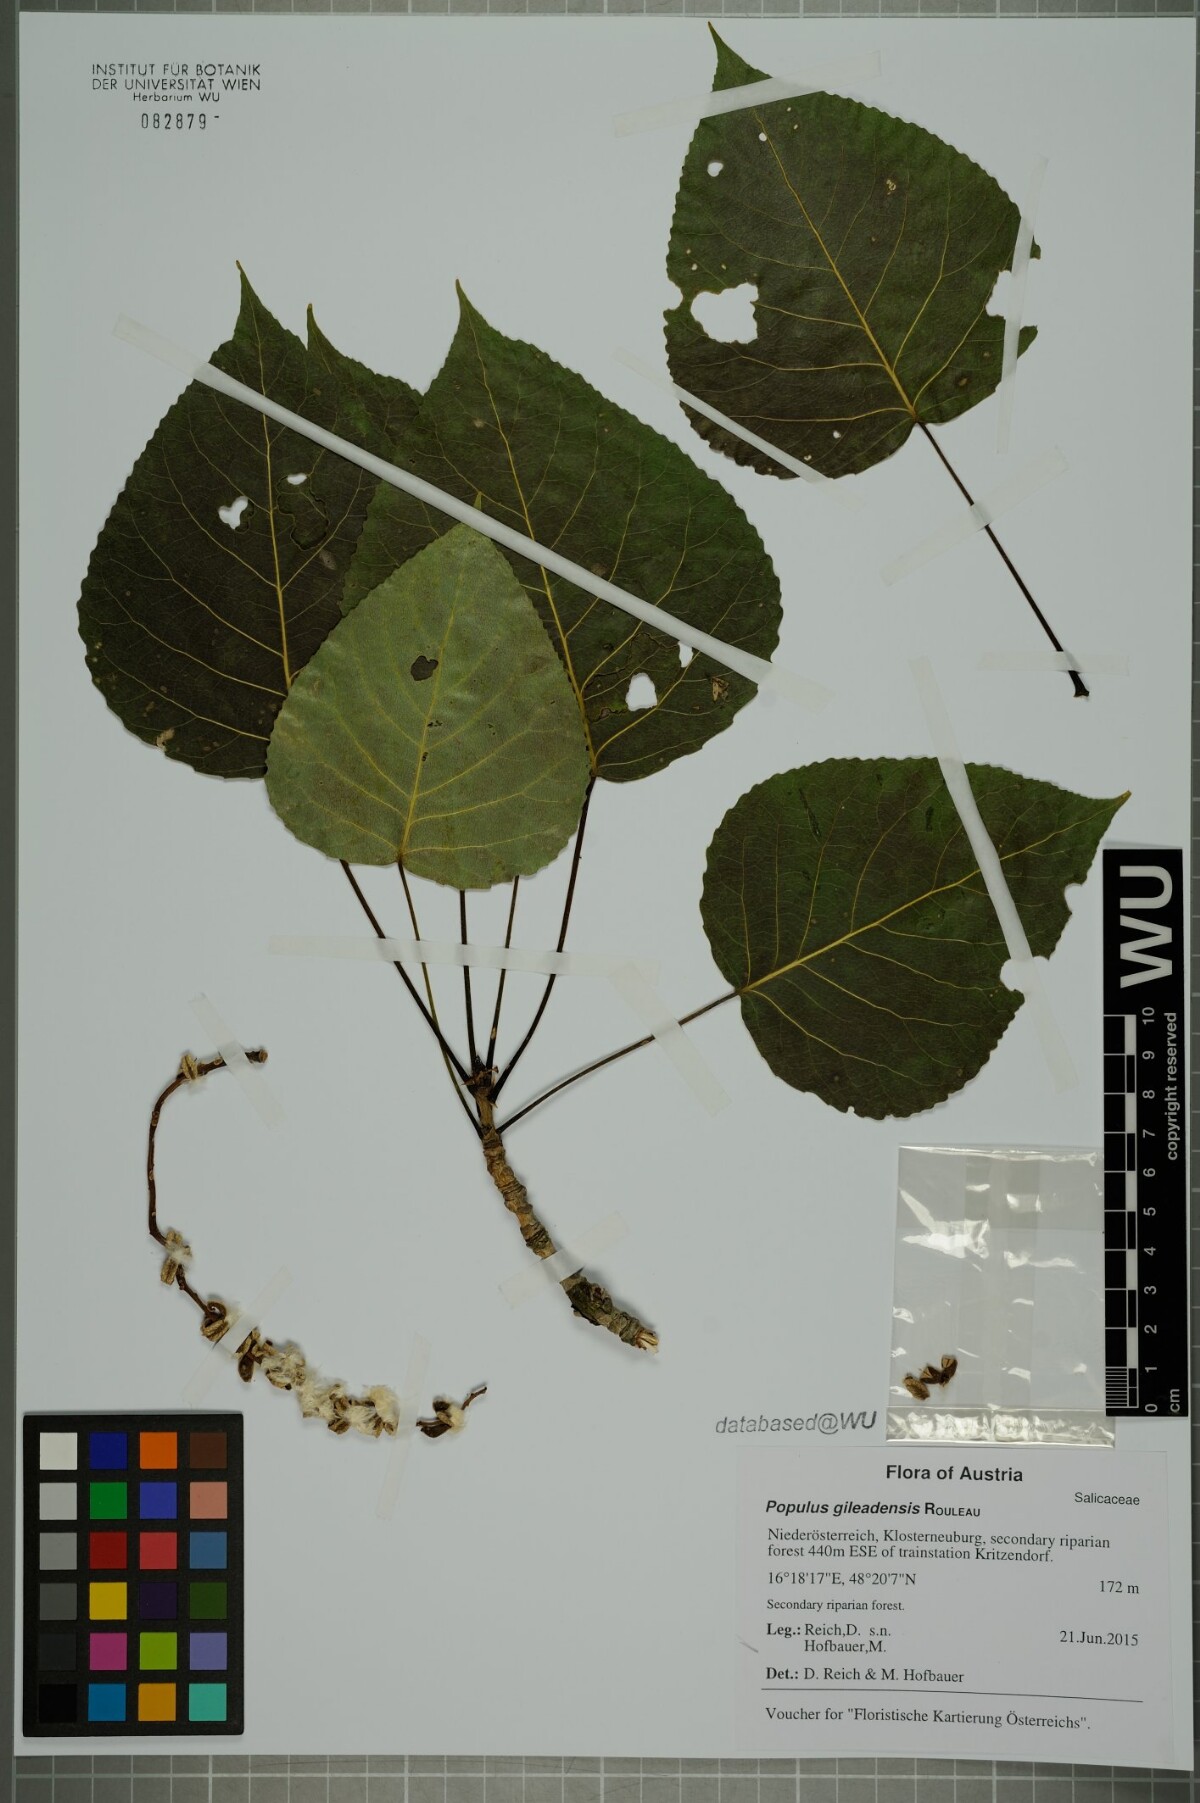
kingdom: Plantae
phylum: Tracheophyta
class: Magnoliopsida
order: Malpighiales
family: Salicaceae
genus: Populus
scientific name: Populus jackii
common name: Balm-of-gilead
